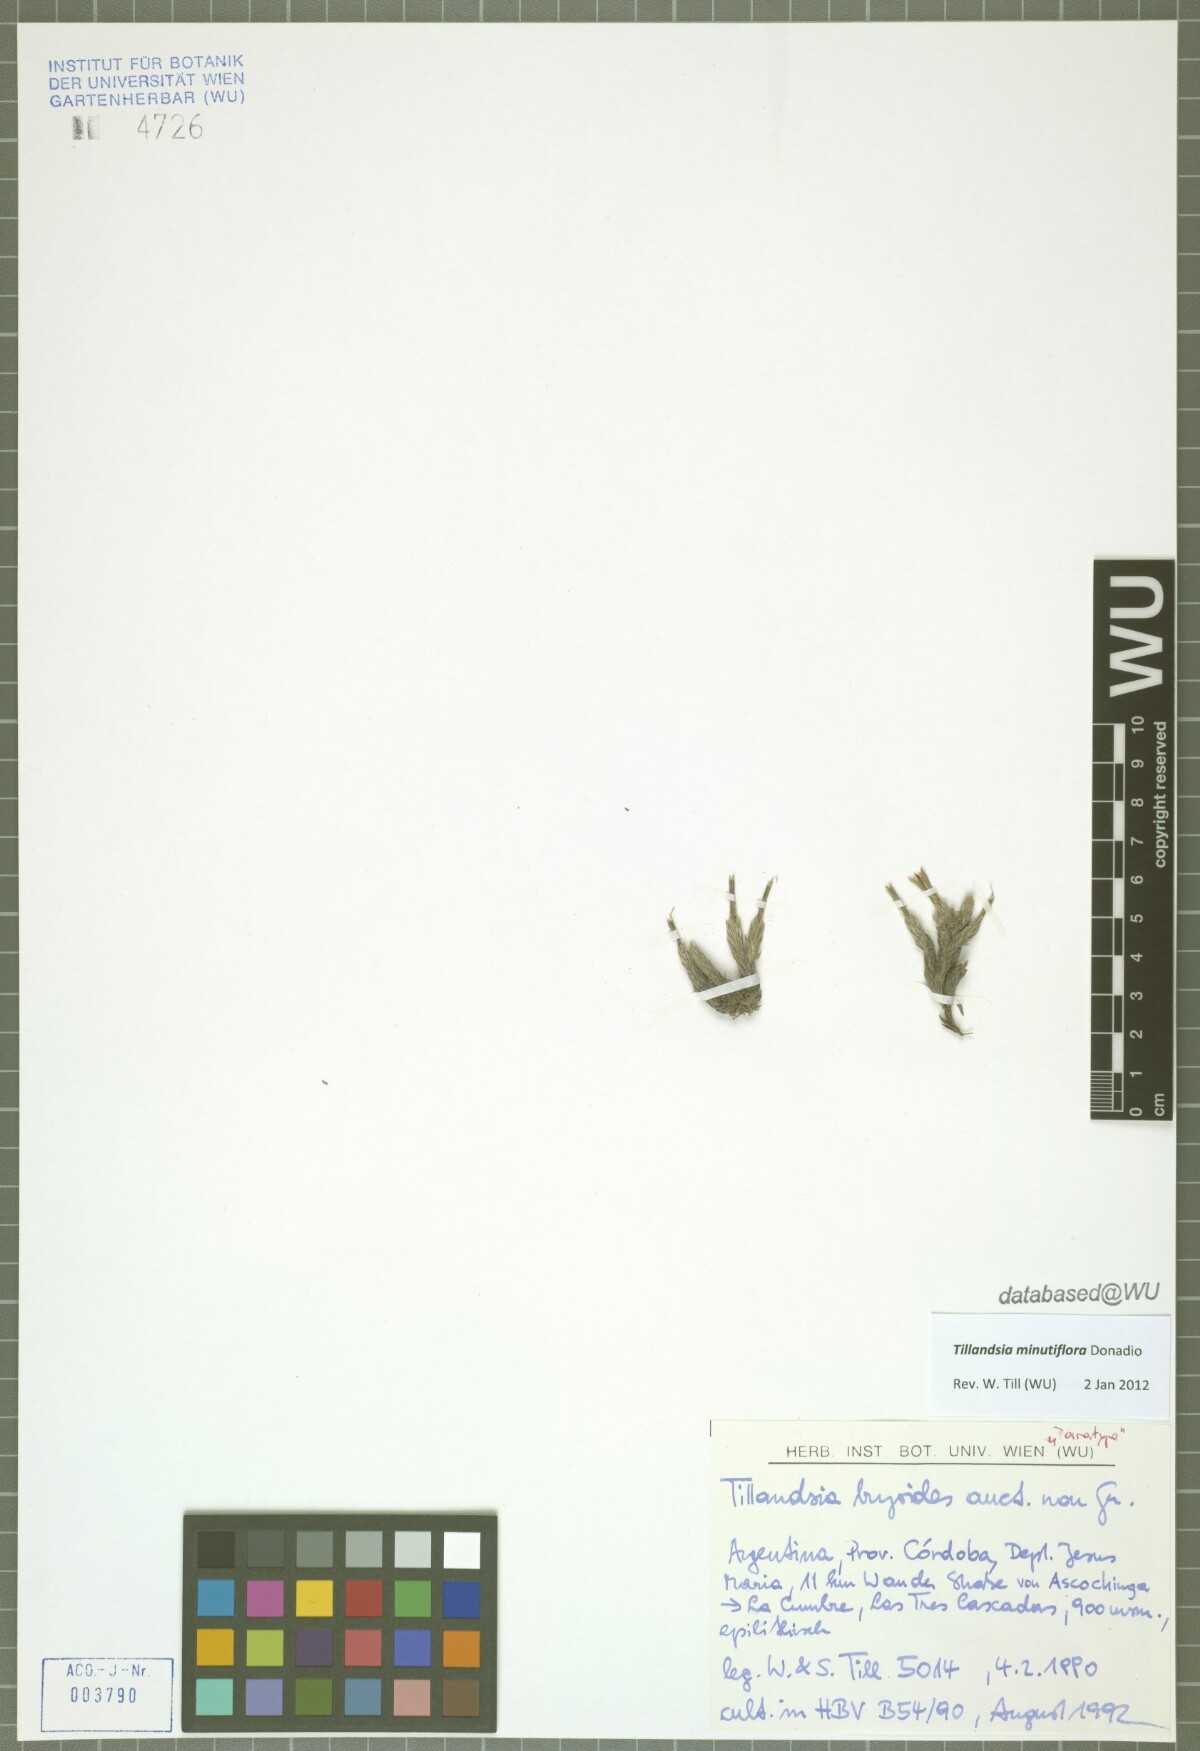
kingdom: Plantae
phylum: Tracheophyta
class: Liliopsida
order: Poales
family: Bromeliaceae
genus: Tillandsia
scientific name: Tillandsia minutiflora
